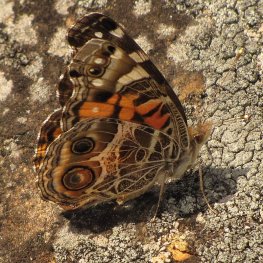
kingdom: Animalia
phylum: Arthropoda
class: Insecta
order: Lepidoptera
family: Nymphalidae
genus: Vanessa
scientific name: Vanessa virginiensis
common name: American Lady
